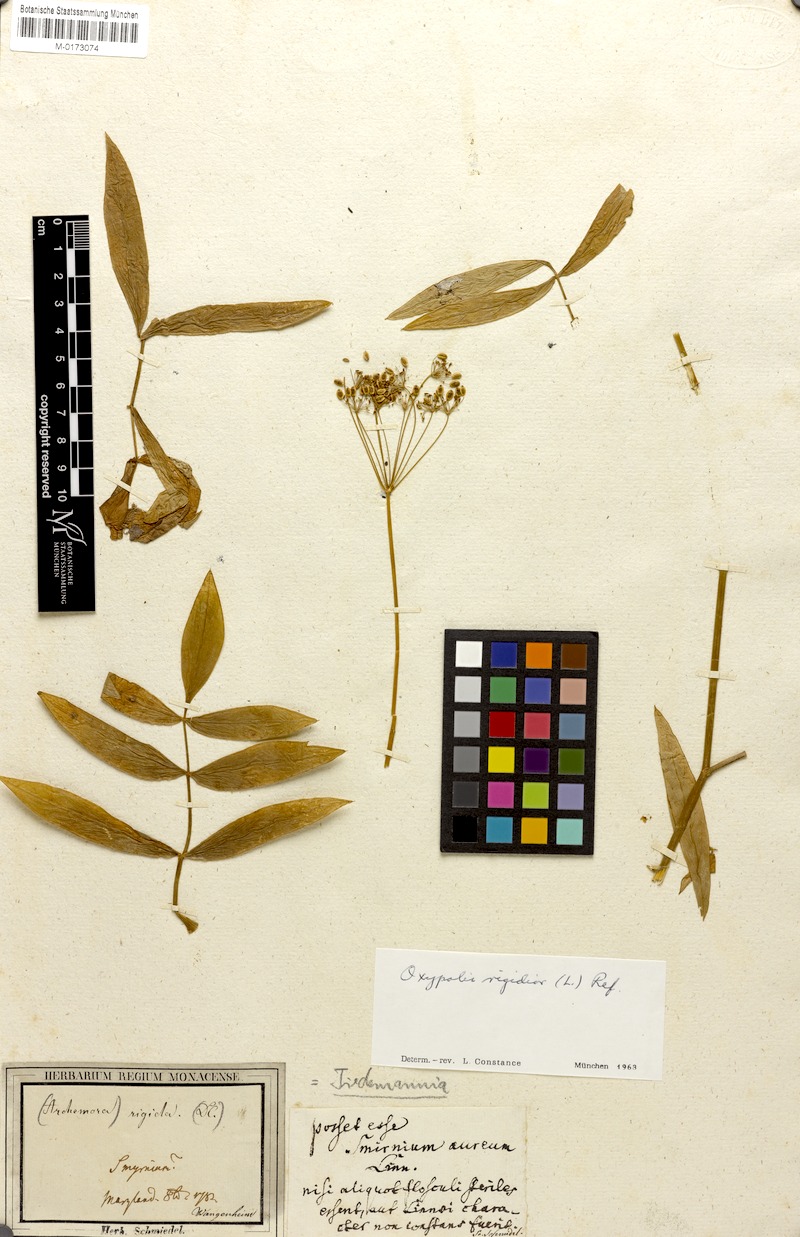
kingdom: Plantae
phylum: Tracheophyta
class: Magnoliopsida
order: Apiales
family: Apiaceae
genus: Oxypolis
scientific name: Oxypolis rigidior
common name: Cowbane
